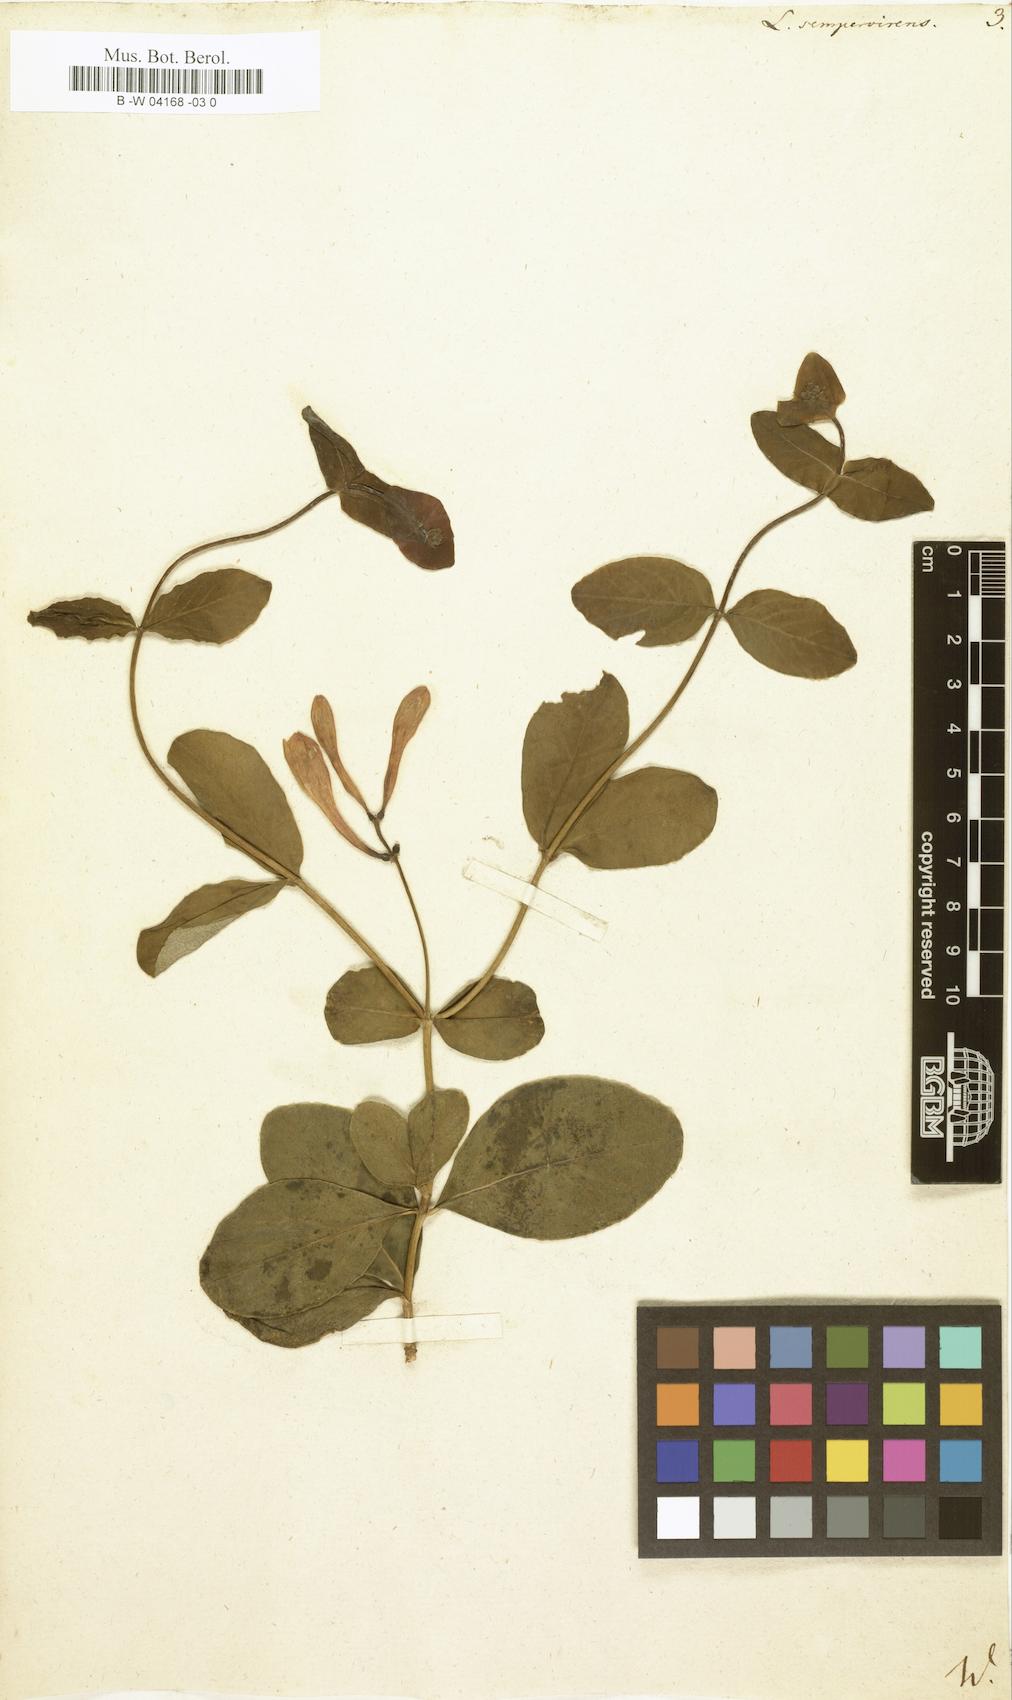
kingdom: Plantae
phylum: Tracheophyta
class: Magnoliopsida
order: Dipsacales
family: Caprifoliaceae
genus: Lonicera
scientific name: Lonicera sempervirens
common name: Coral honeysuckle
